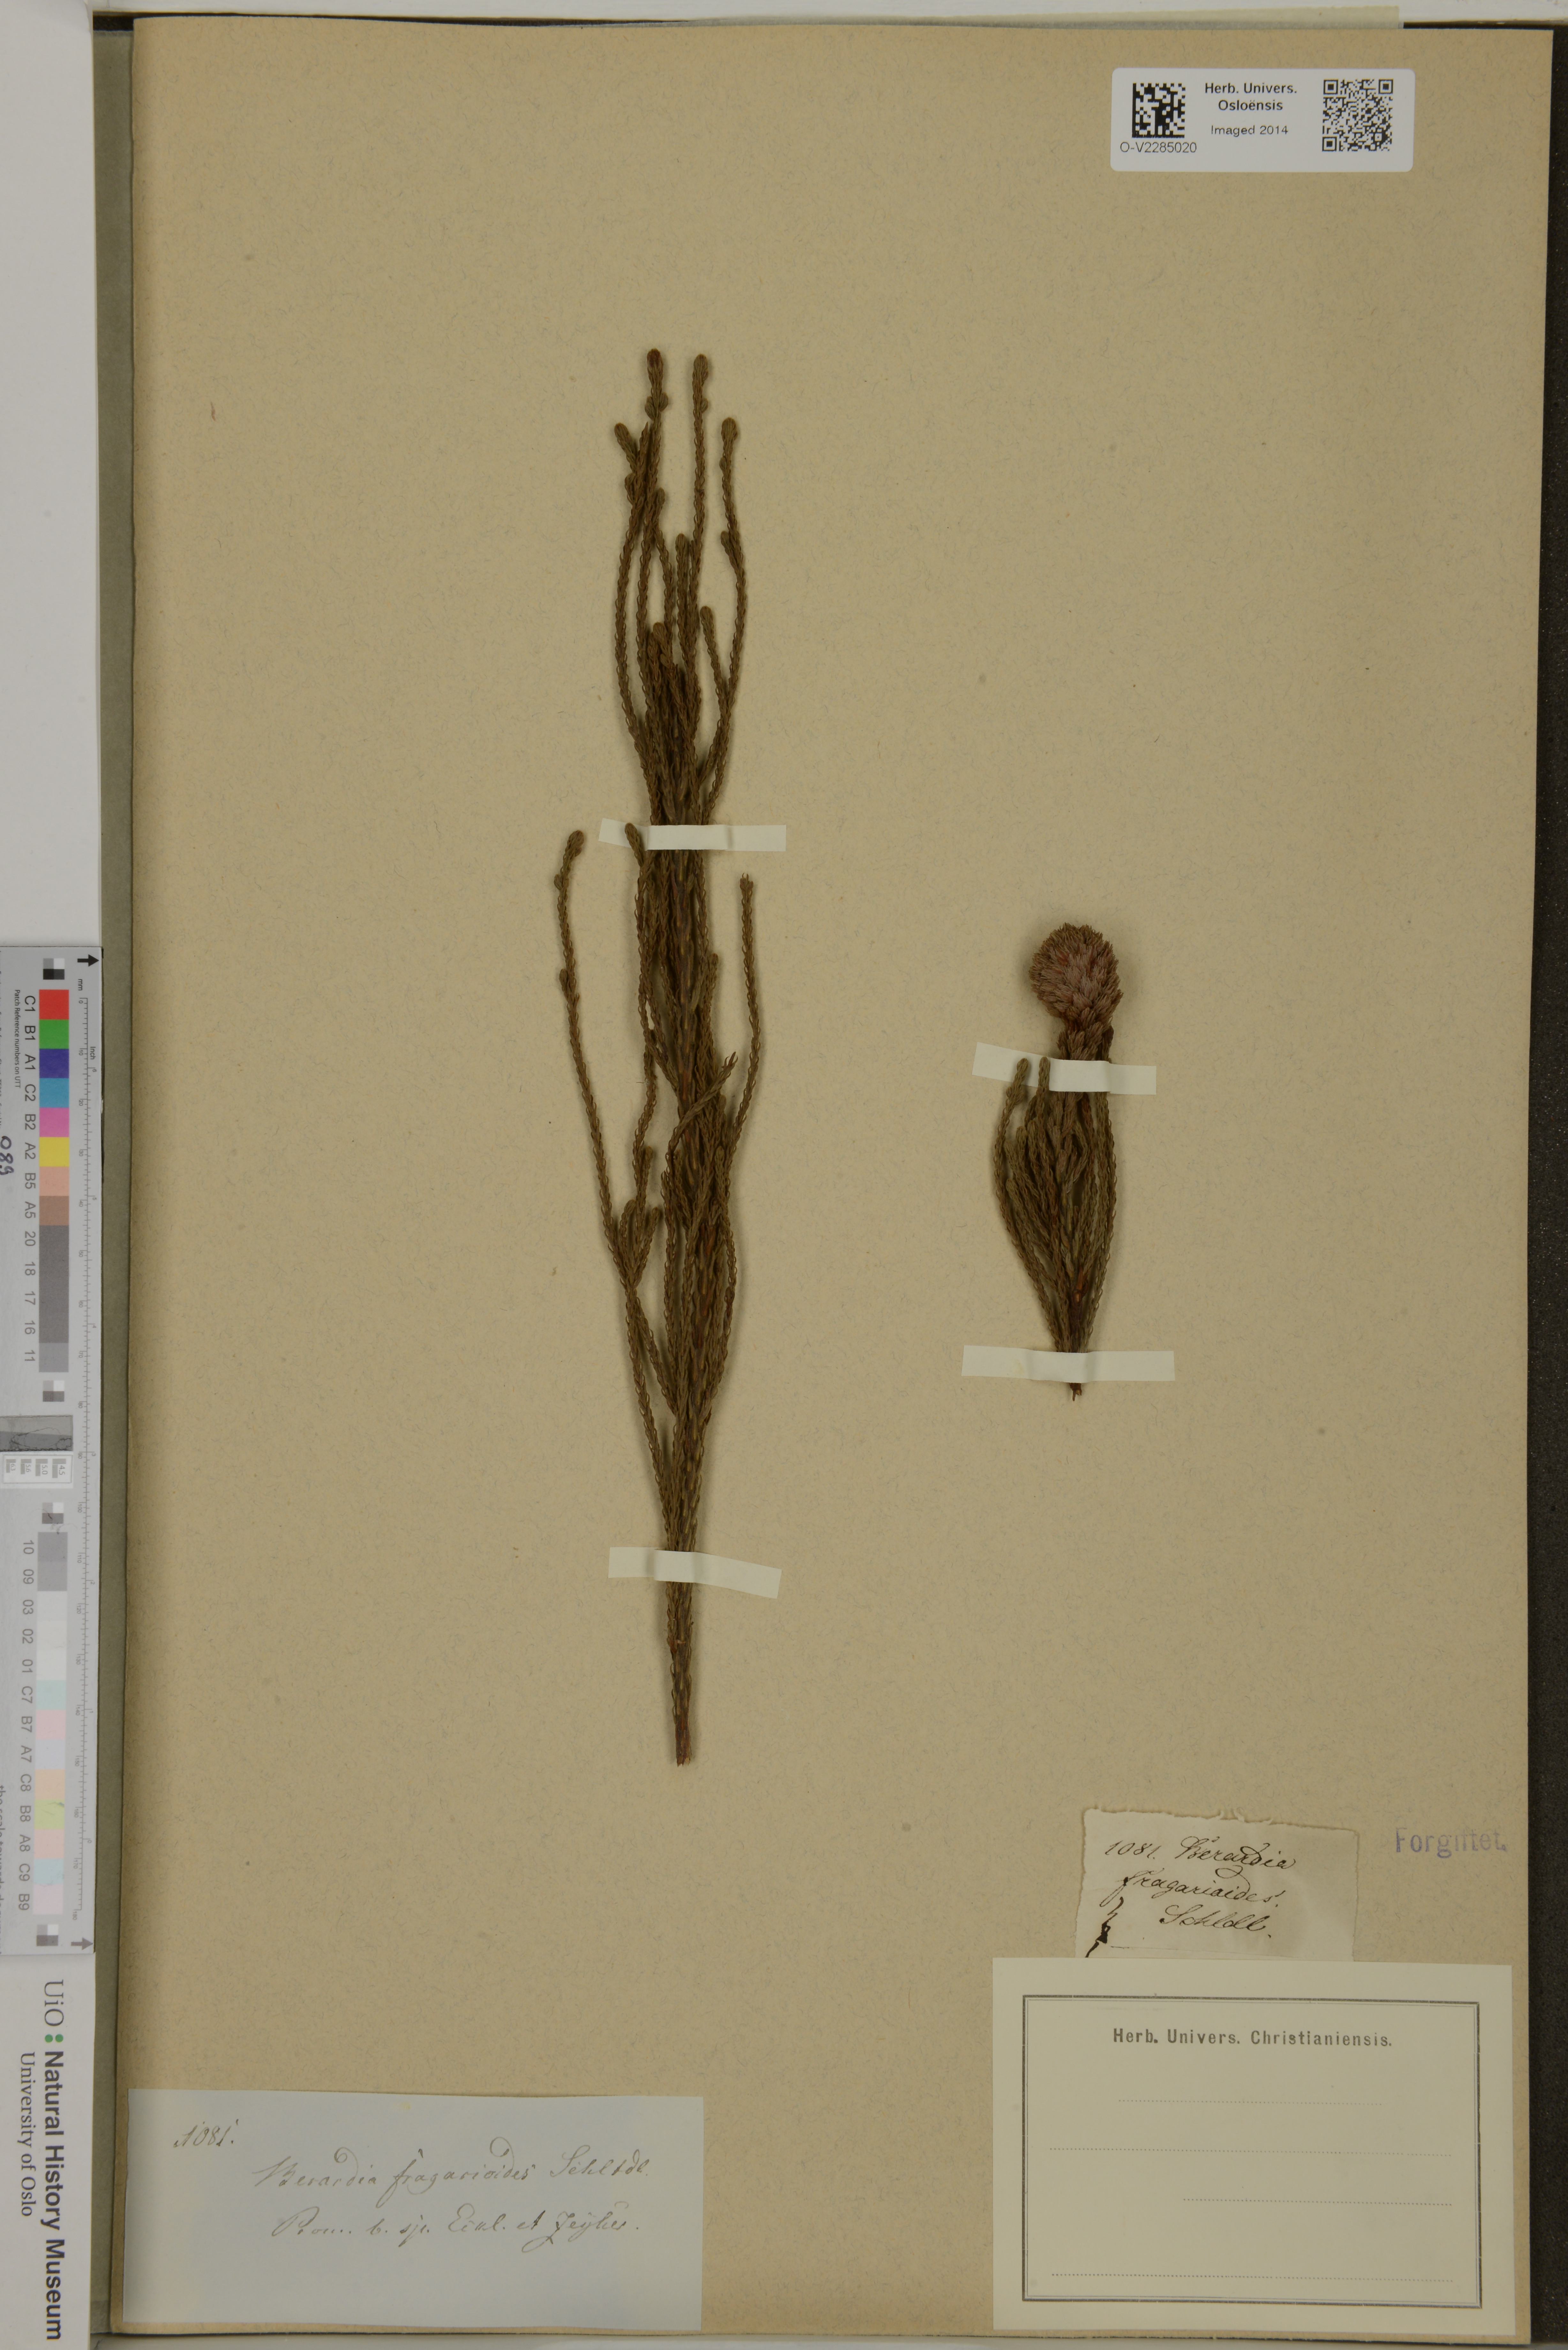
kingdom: Plantae
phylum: Tracheophyta
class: Magnoliopsida
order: Bruniales
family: Bruniaceae
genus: Brunia
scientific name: Brunia fragarioides
